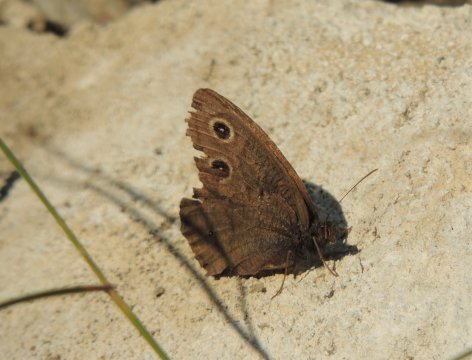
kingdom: Animalia
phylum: Arthropoda
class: Insecta
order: Lepidoptera
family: Nymphalidae
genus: Cercyonis
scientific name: Cercyonis pegala
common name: Common Wood-Nymph
